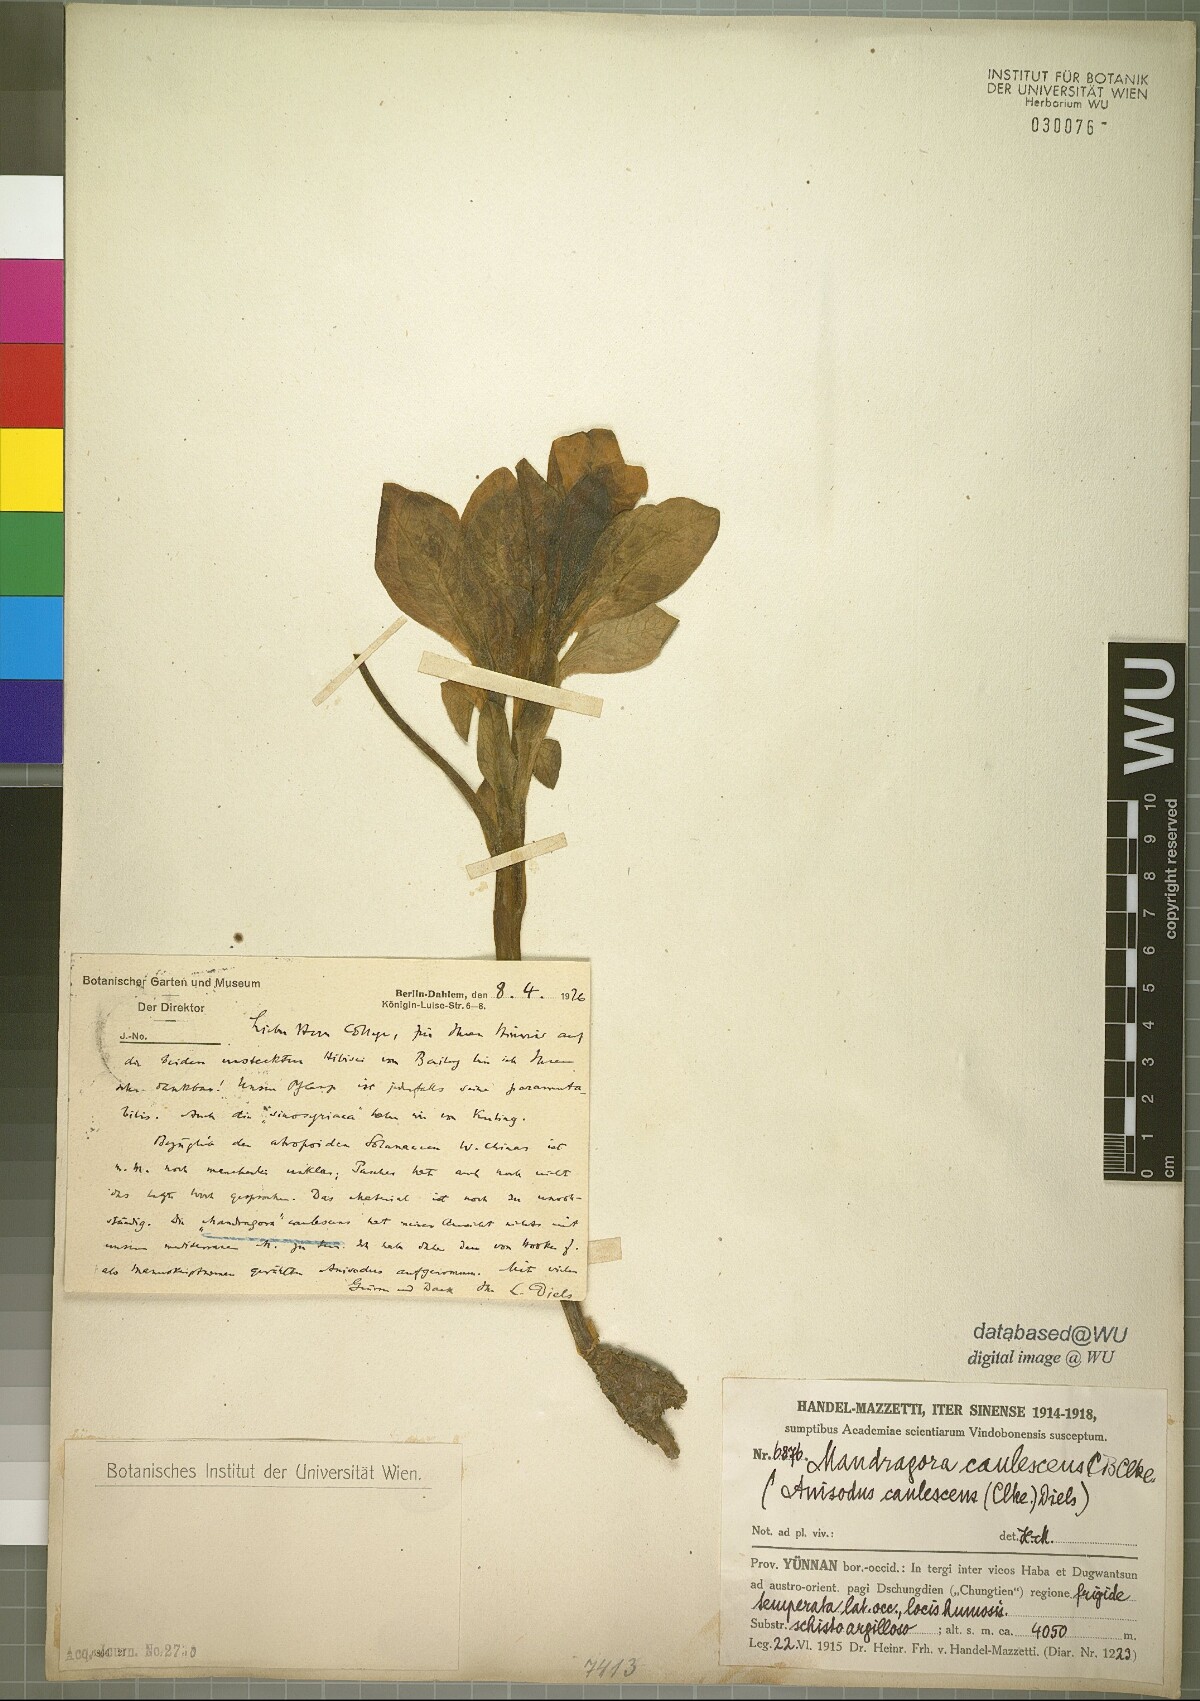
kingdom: Plantae
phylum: Tracheophyta
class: Magnoliopsida
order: Solanales
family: Solanaceae
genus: Mandragora
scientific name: Mandragora caulescens
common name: Himalayan mandrake
